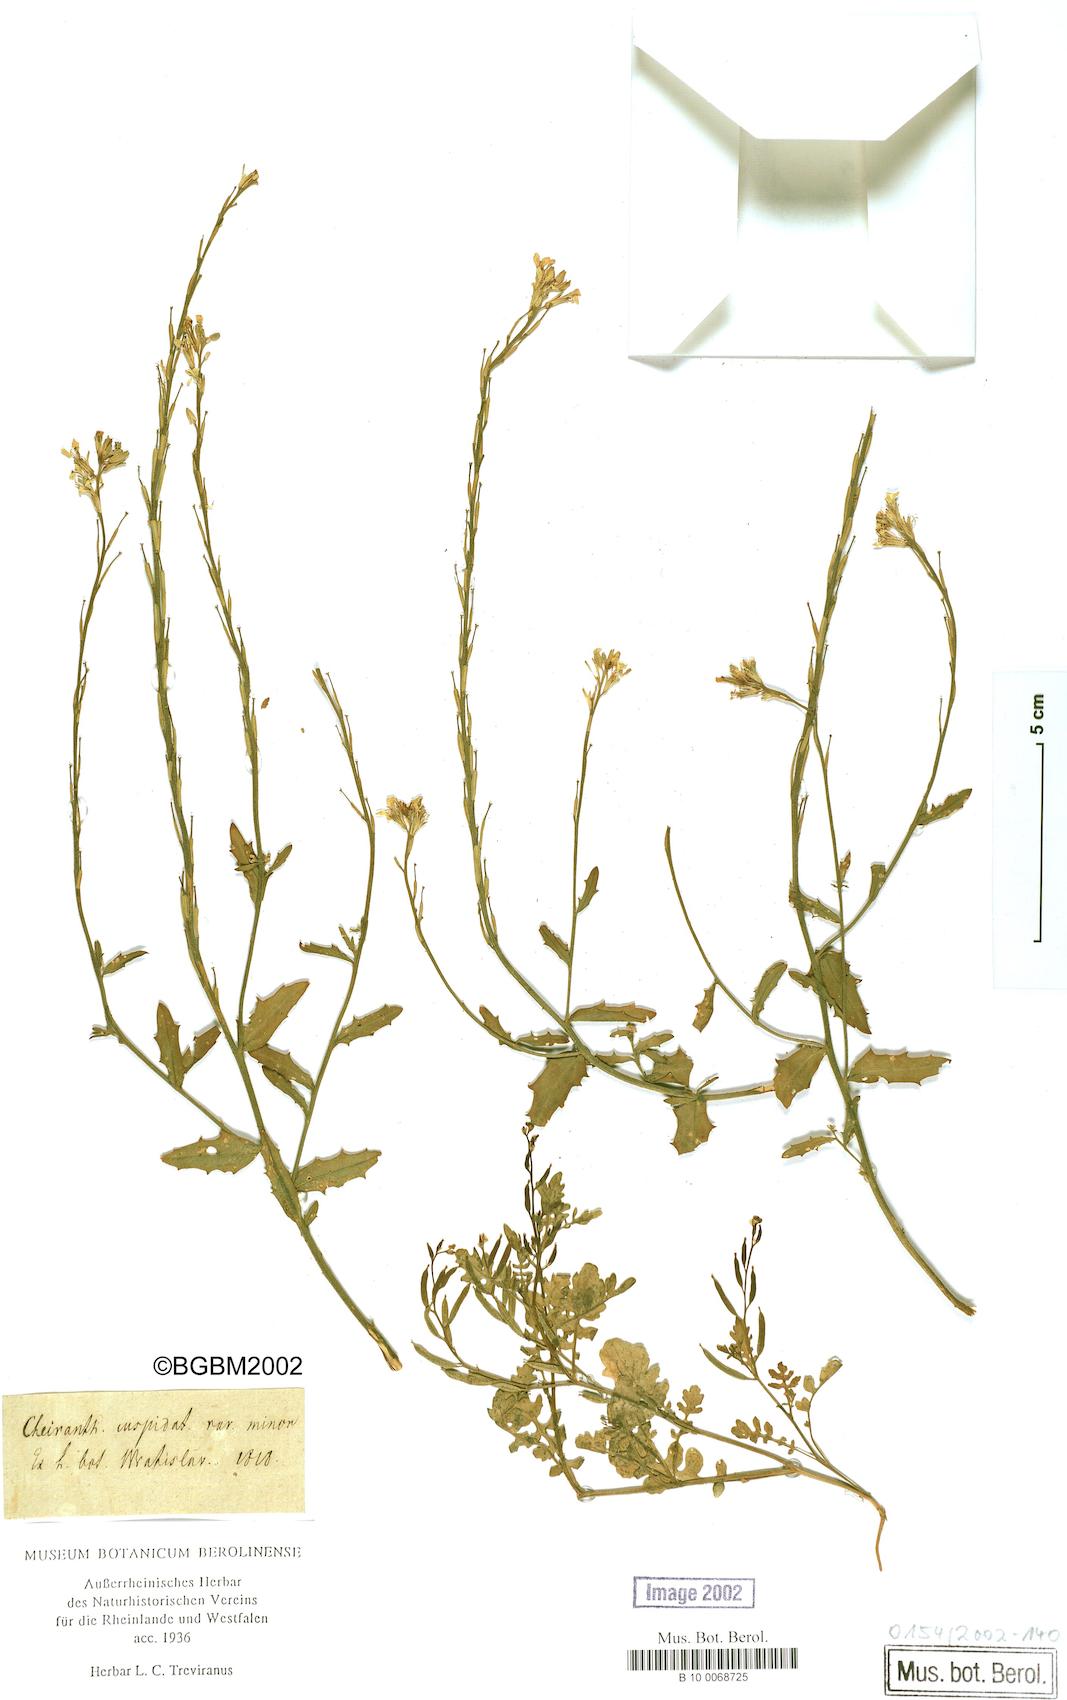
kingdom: Plantae
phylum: Tracheophyta
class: Magnoliopsida
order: Brassicales
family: Brassicaceae
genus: Erysimum
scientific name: Erysimum cuspidatum
